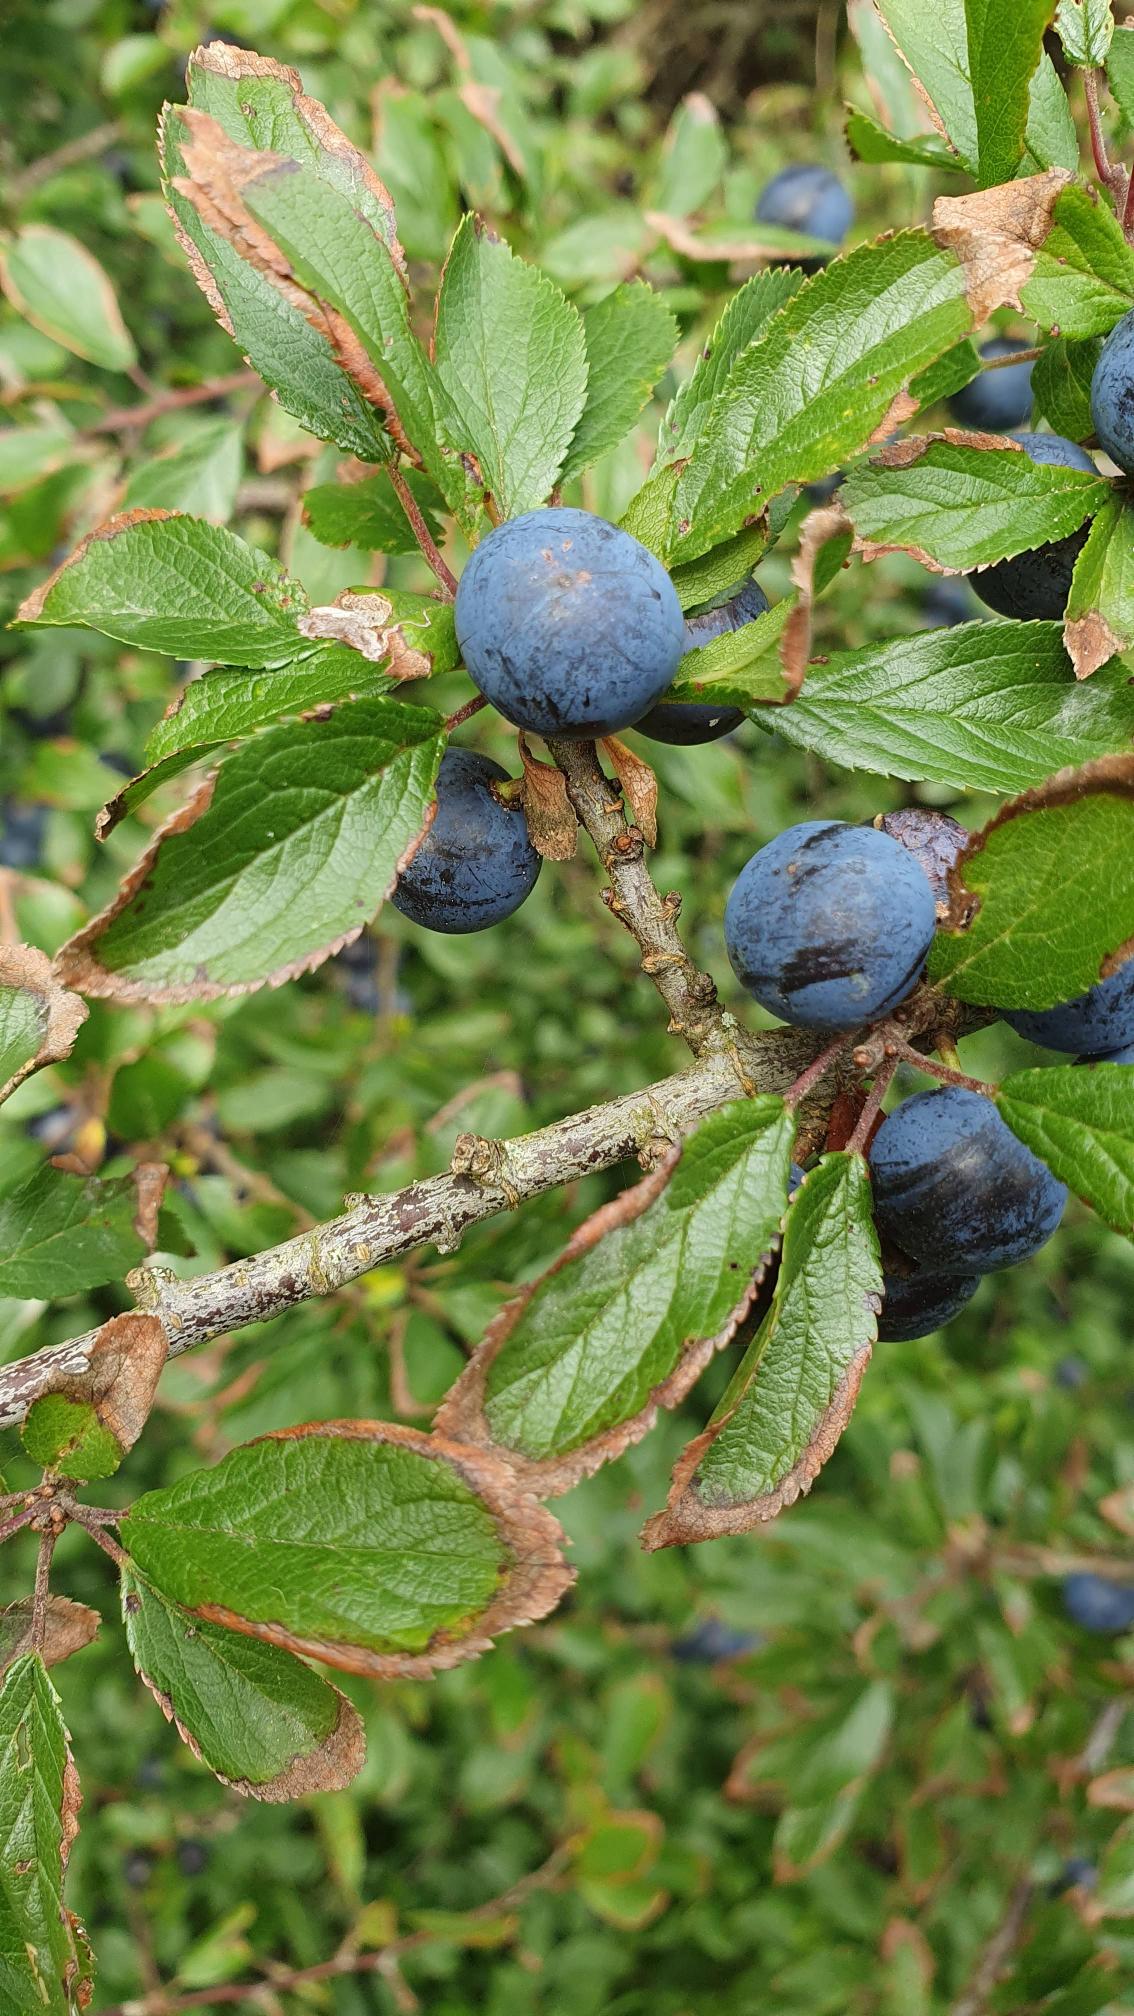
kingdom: Plantae
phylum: Tracheophyta
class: Magnoliopsida
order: Rosales
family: Rosaceae
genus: Prunus
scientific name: Prunus spinosa
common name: Slåen
